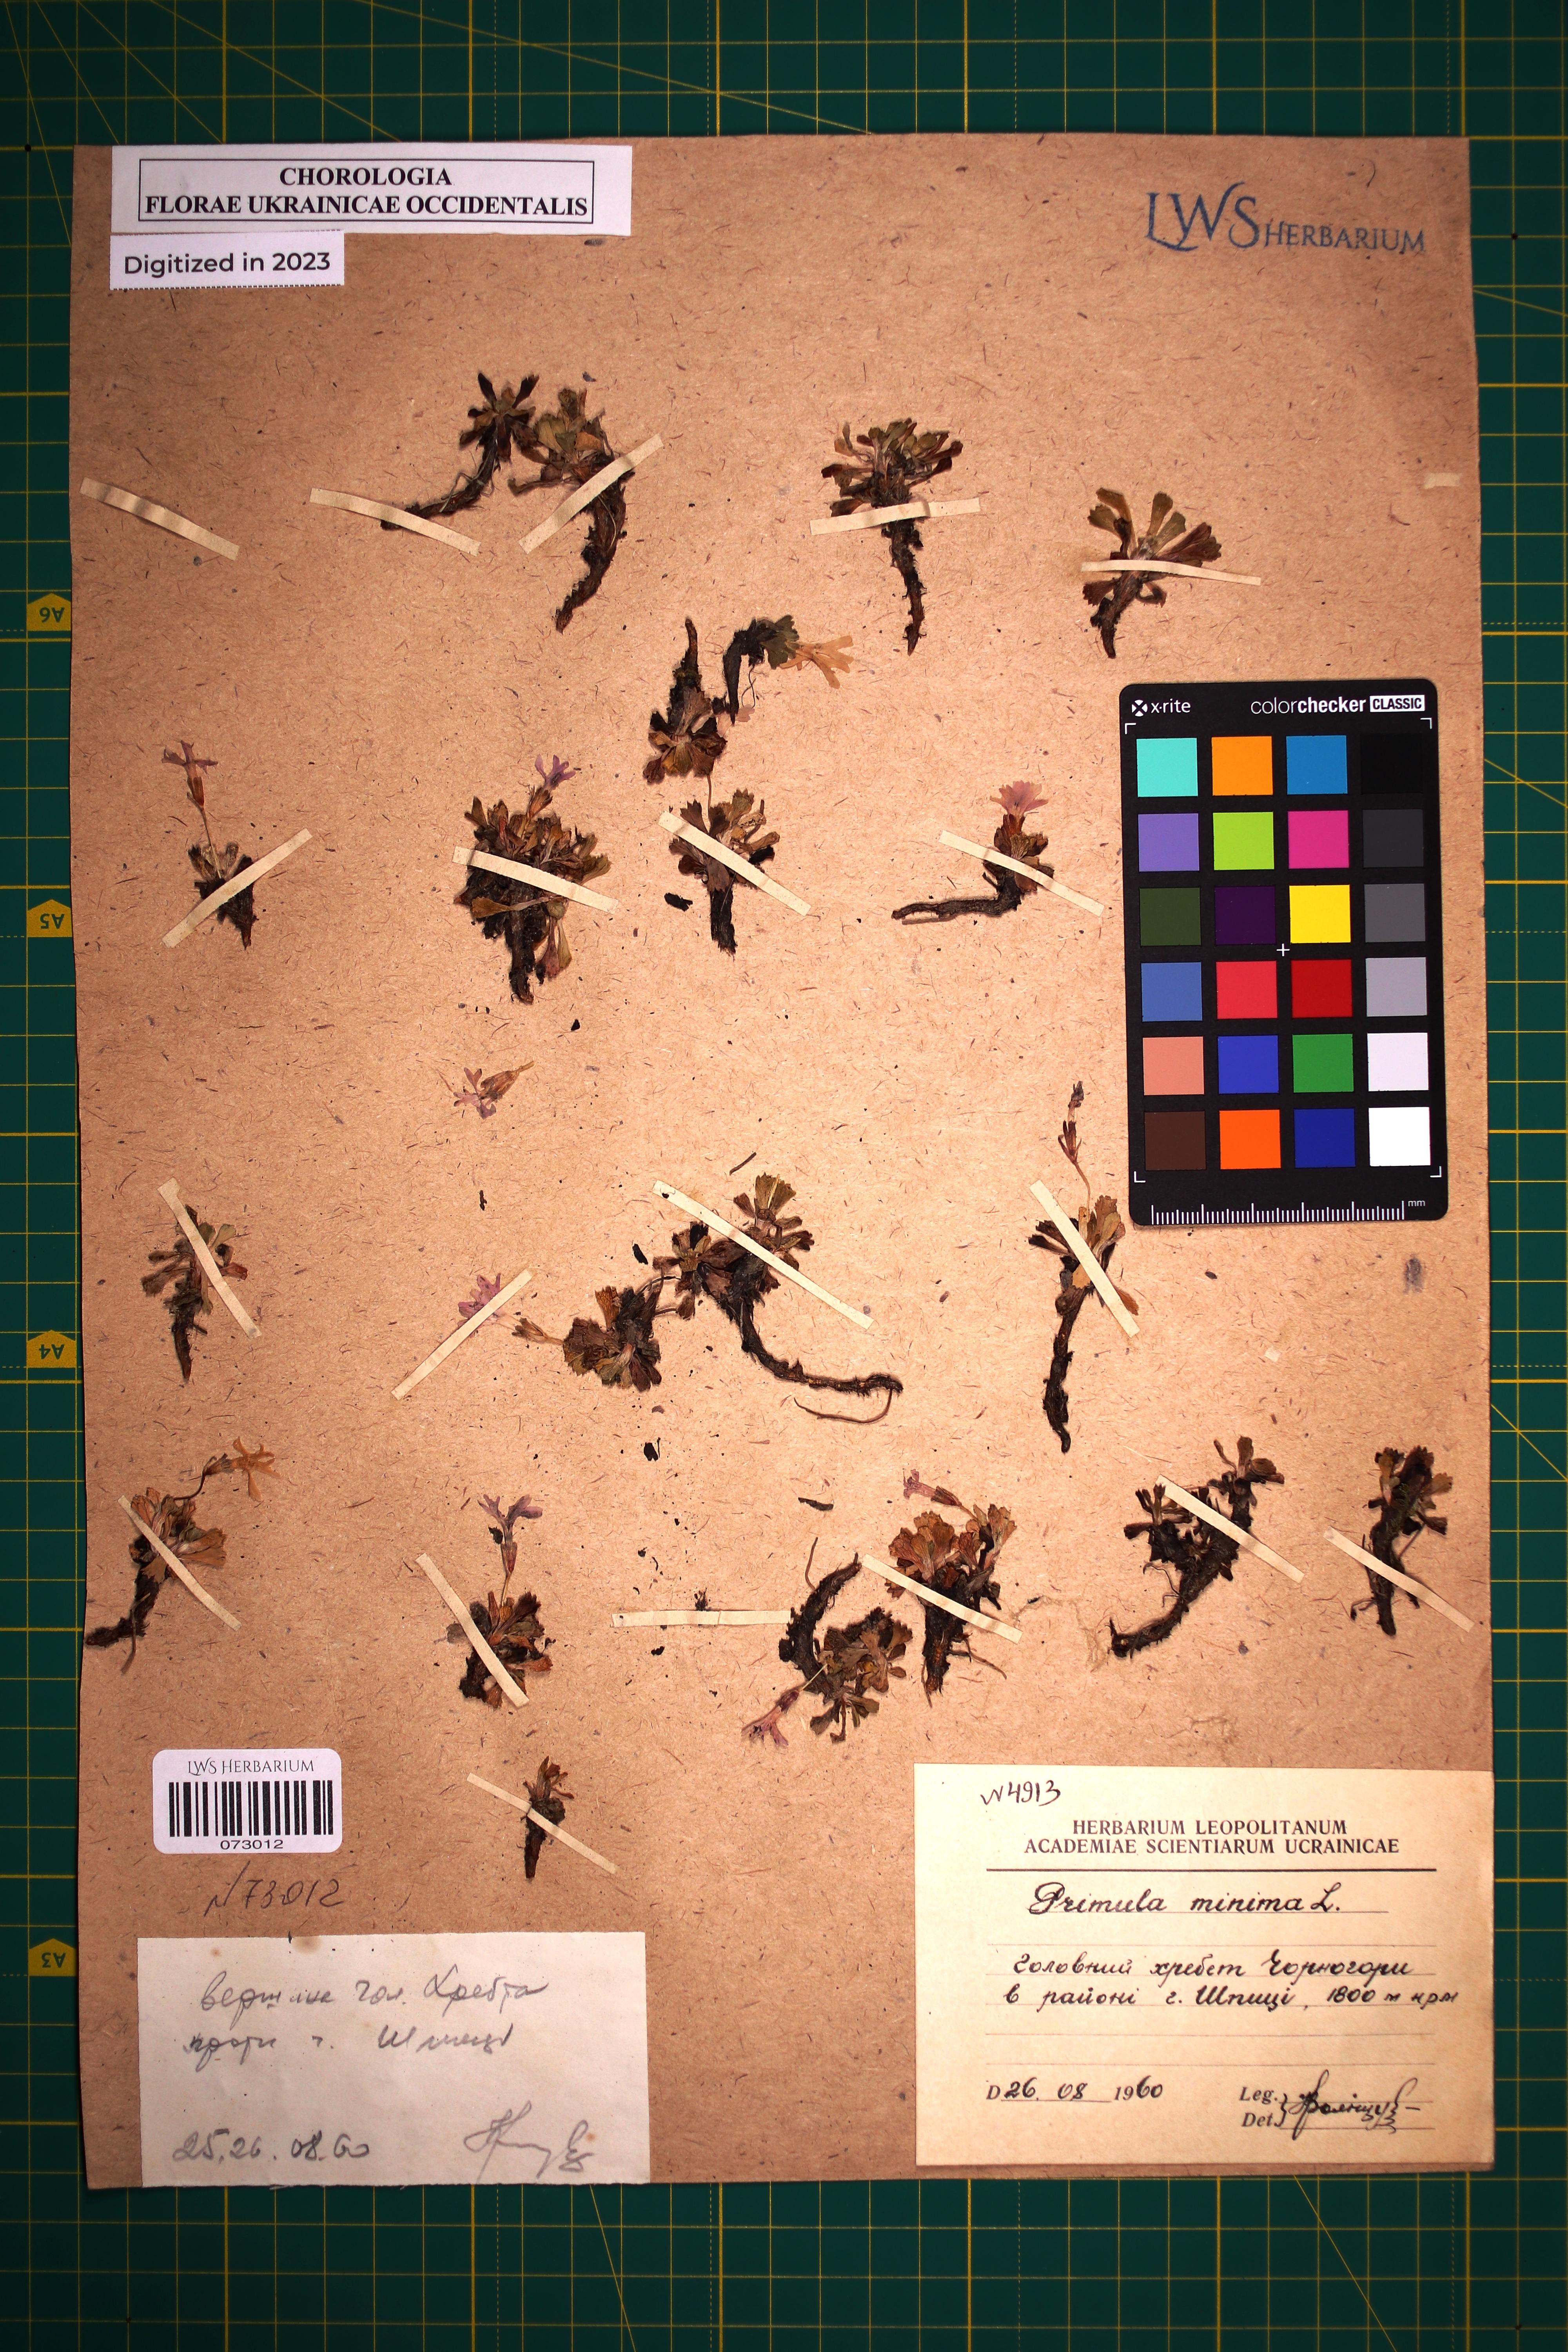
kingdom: Plantae
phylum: Tracheophyta
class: Magnoliopsida
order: Ericales
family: Primulaceae
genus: Primula
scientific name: Primula minima
